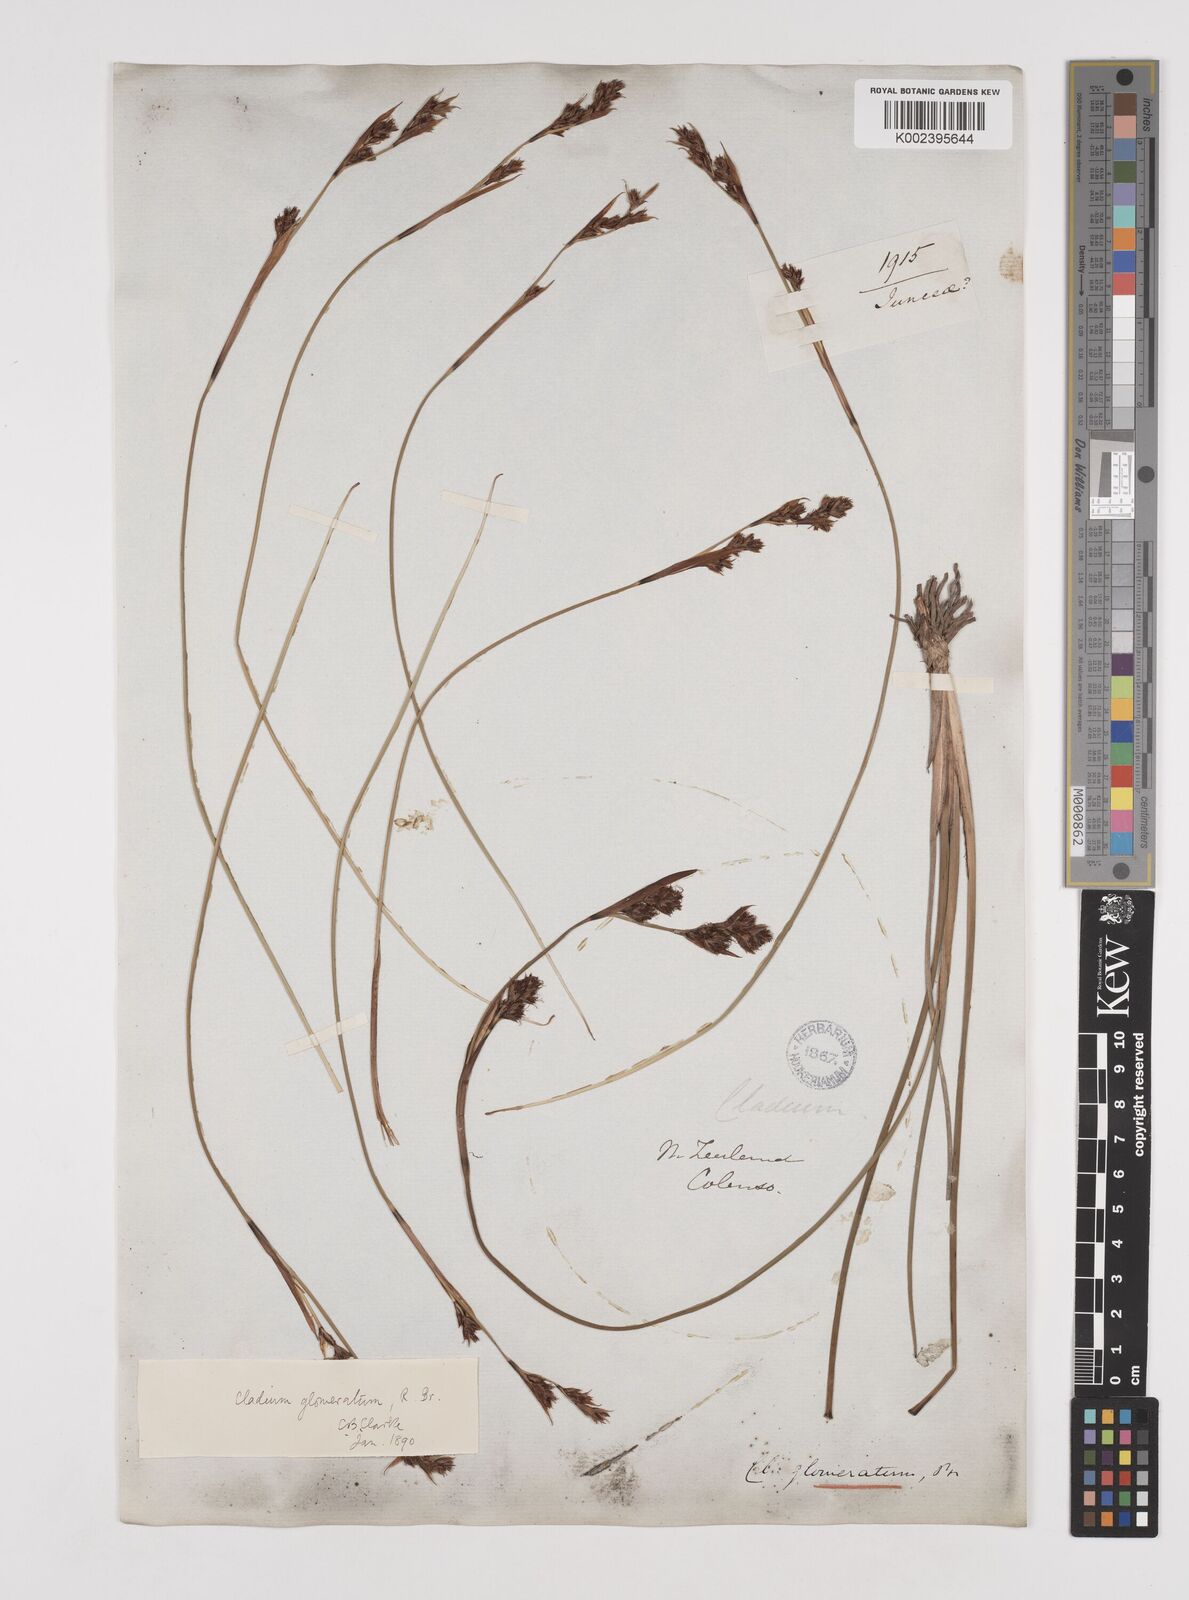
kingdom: Plantae
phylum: Tracheophyta
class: Liliopsida
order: Poales
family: Cyperaceae
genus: Machaerina
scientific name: Machaerina rubiginosa
